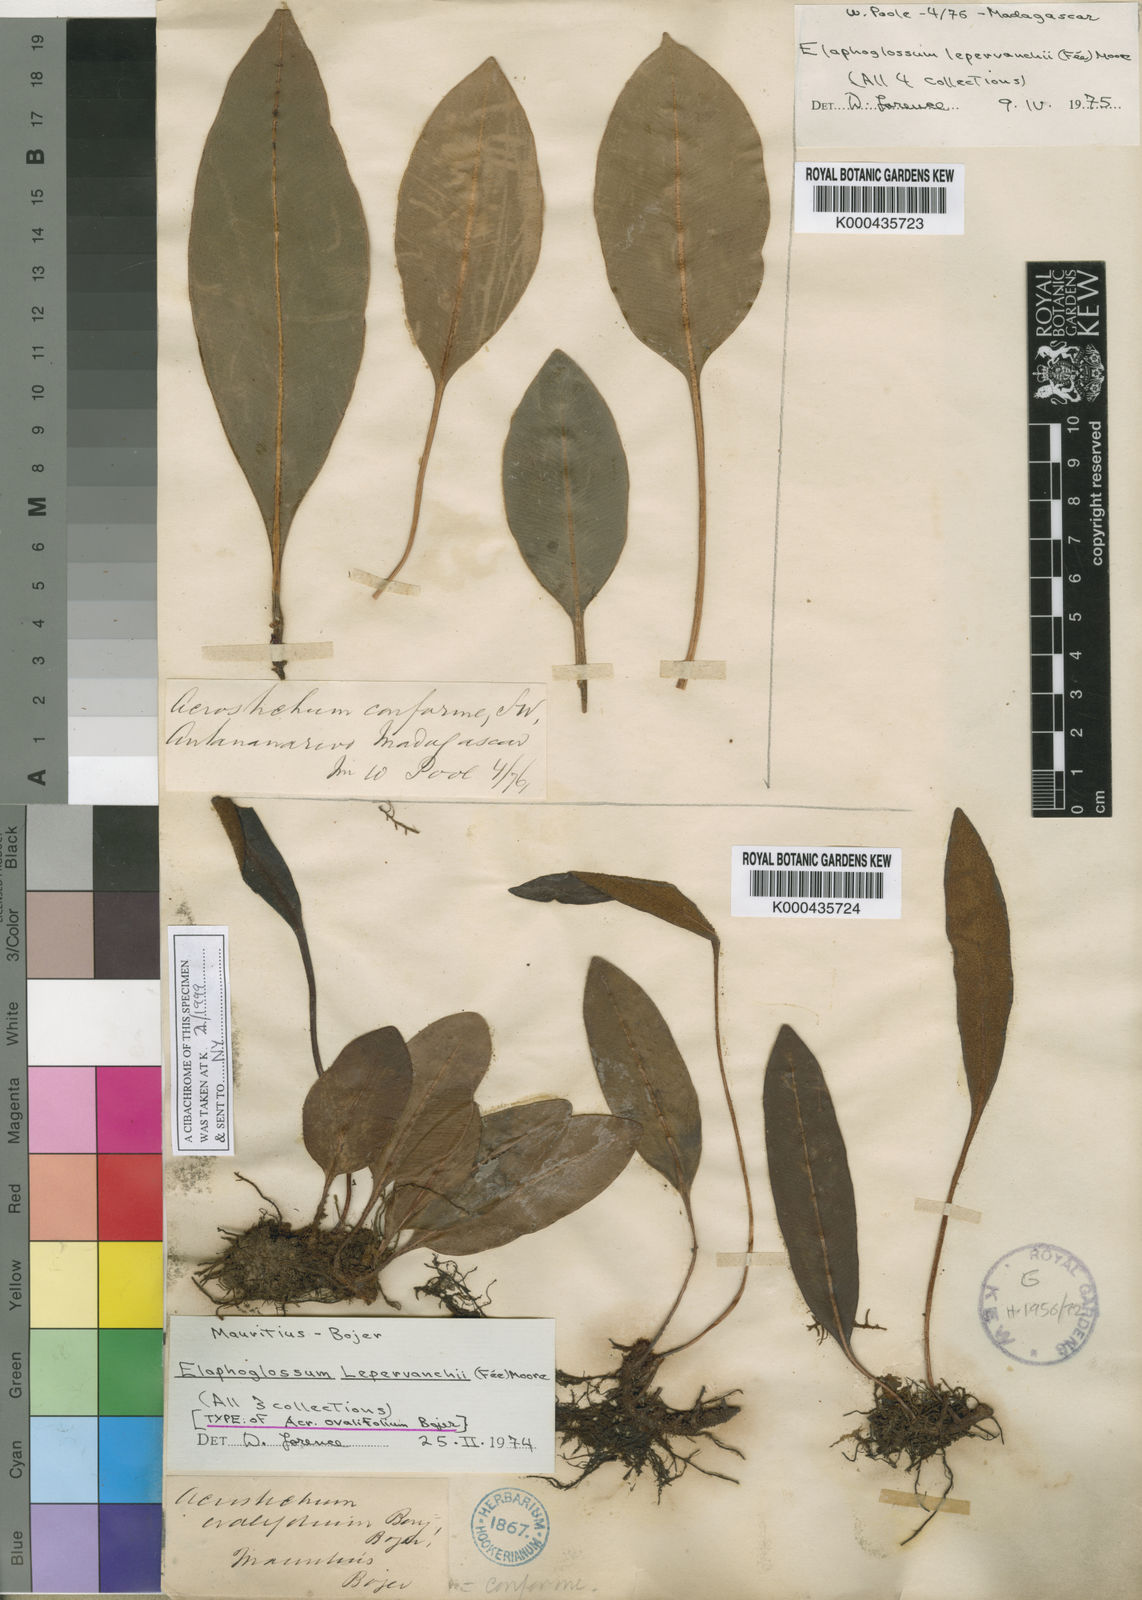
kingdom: Plantae
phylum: Tracheophyta
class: Polypodiopsida
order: Polypodiales
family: Dryopteridaceae
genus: Elaphoglossum
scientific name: Elaphoglossum
